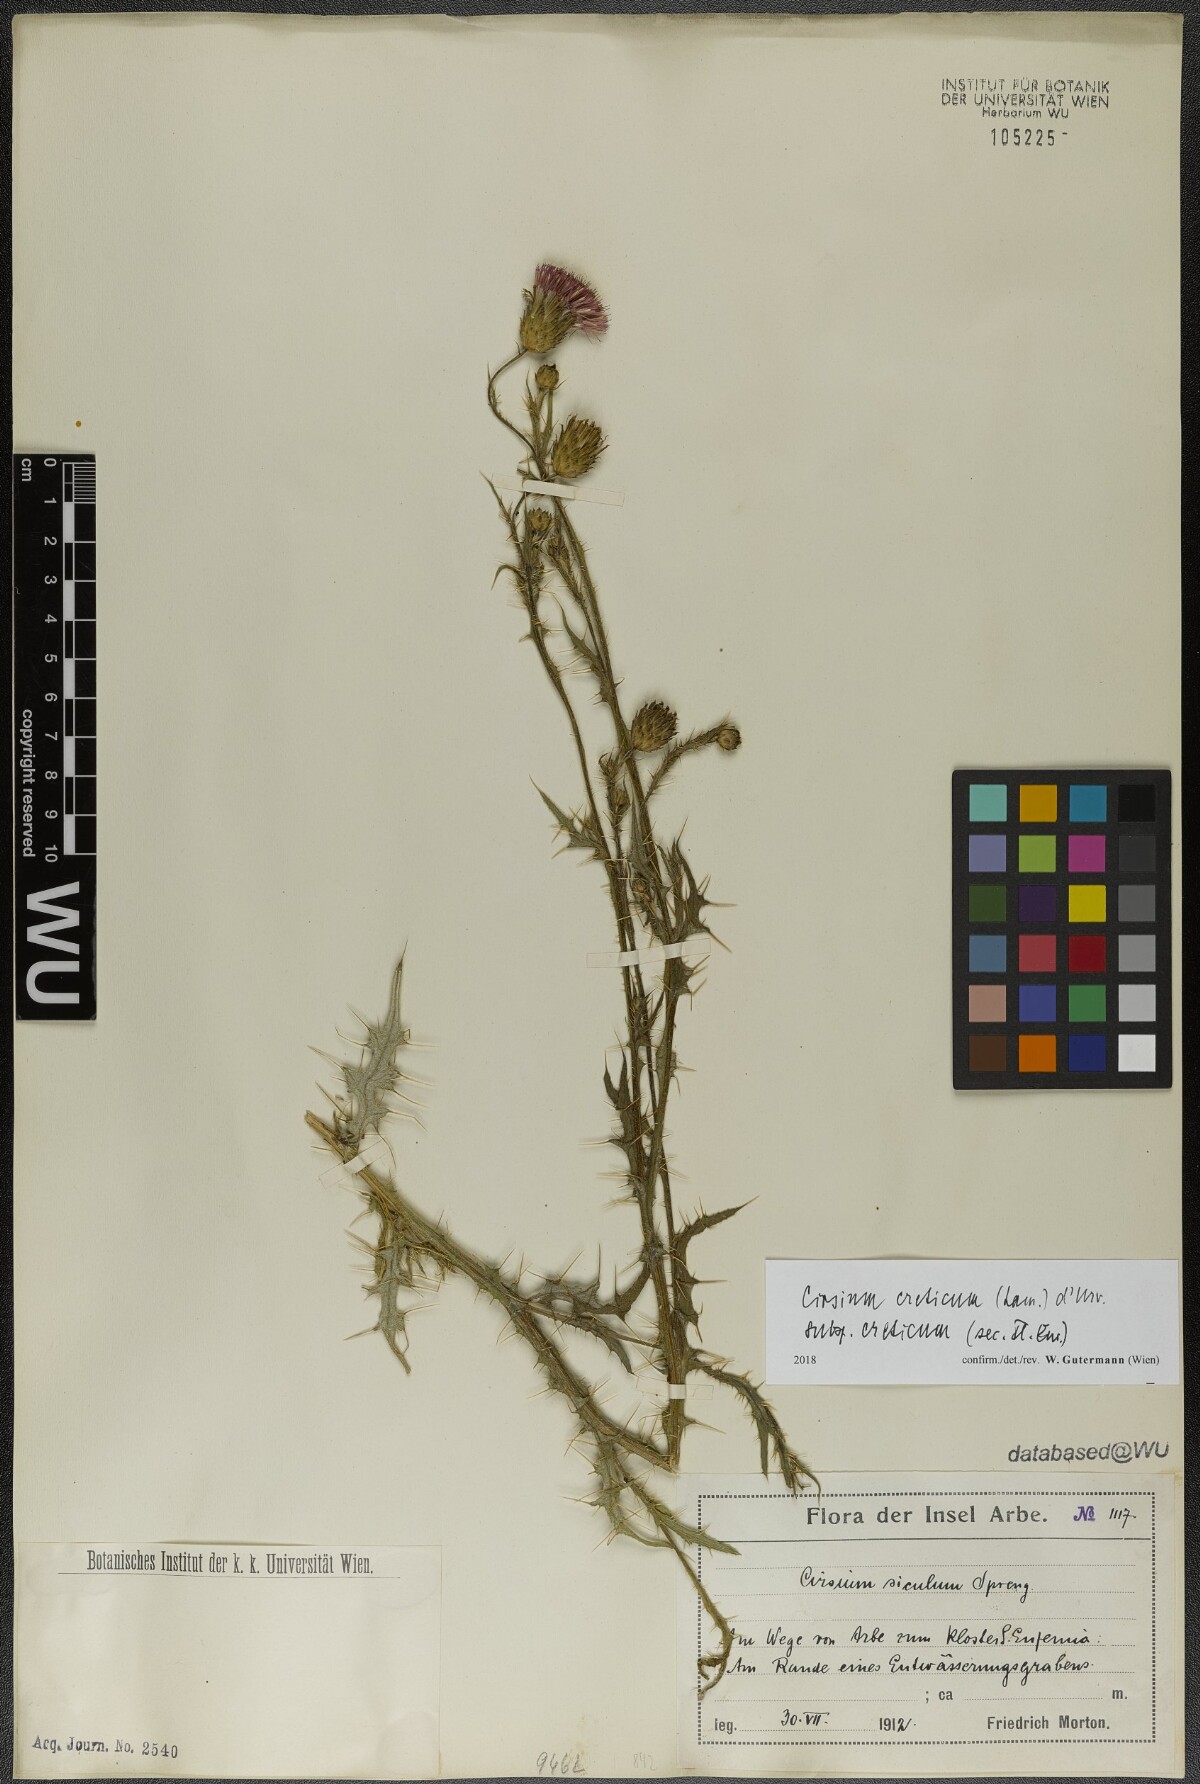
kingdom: Plantae
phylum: Tracheophyta
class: Magnoliopsida
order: Asterales
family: Asteraceae
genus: Cirsium
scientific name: Cirsium creticum
